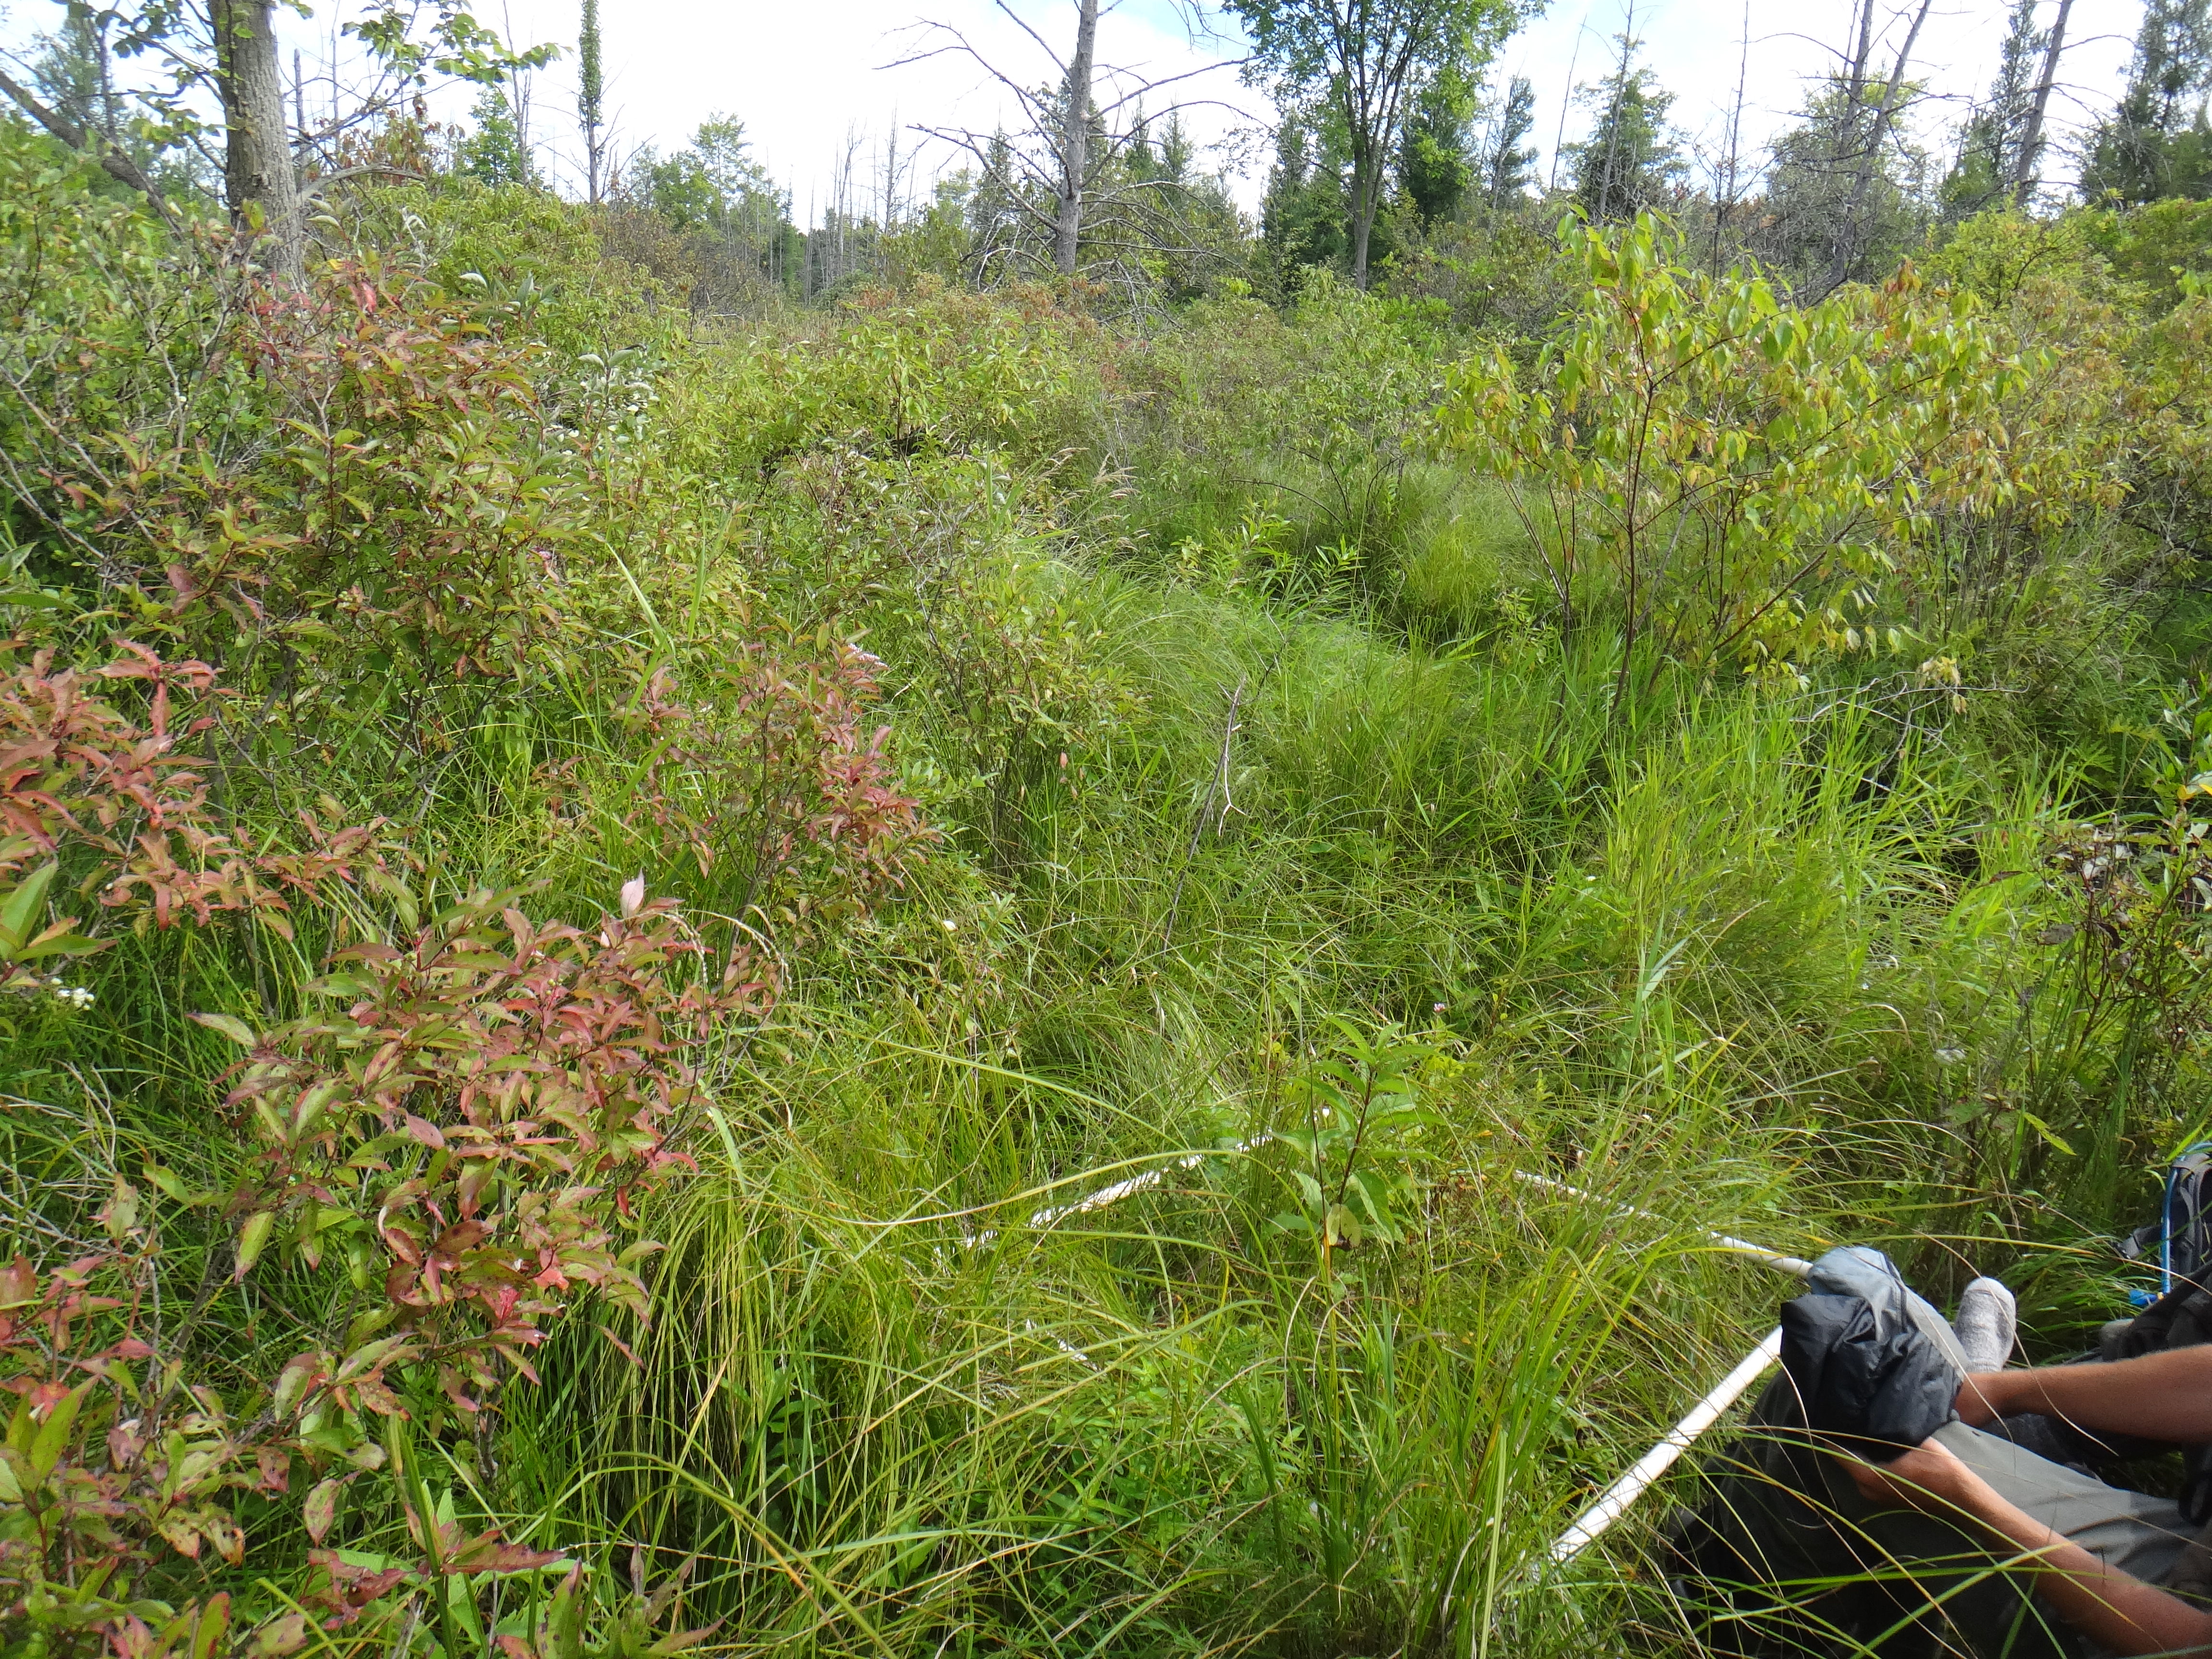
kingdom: Plantae
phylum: Tracheophyta
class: Liliopsida
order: Poales
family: Poaceae
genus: Agrostis
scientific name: Agrostis gigantea
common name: Black bent
